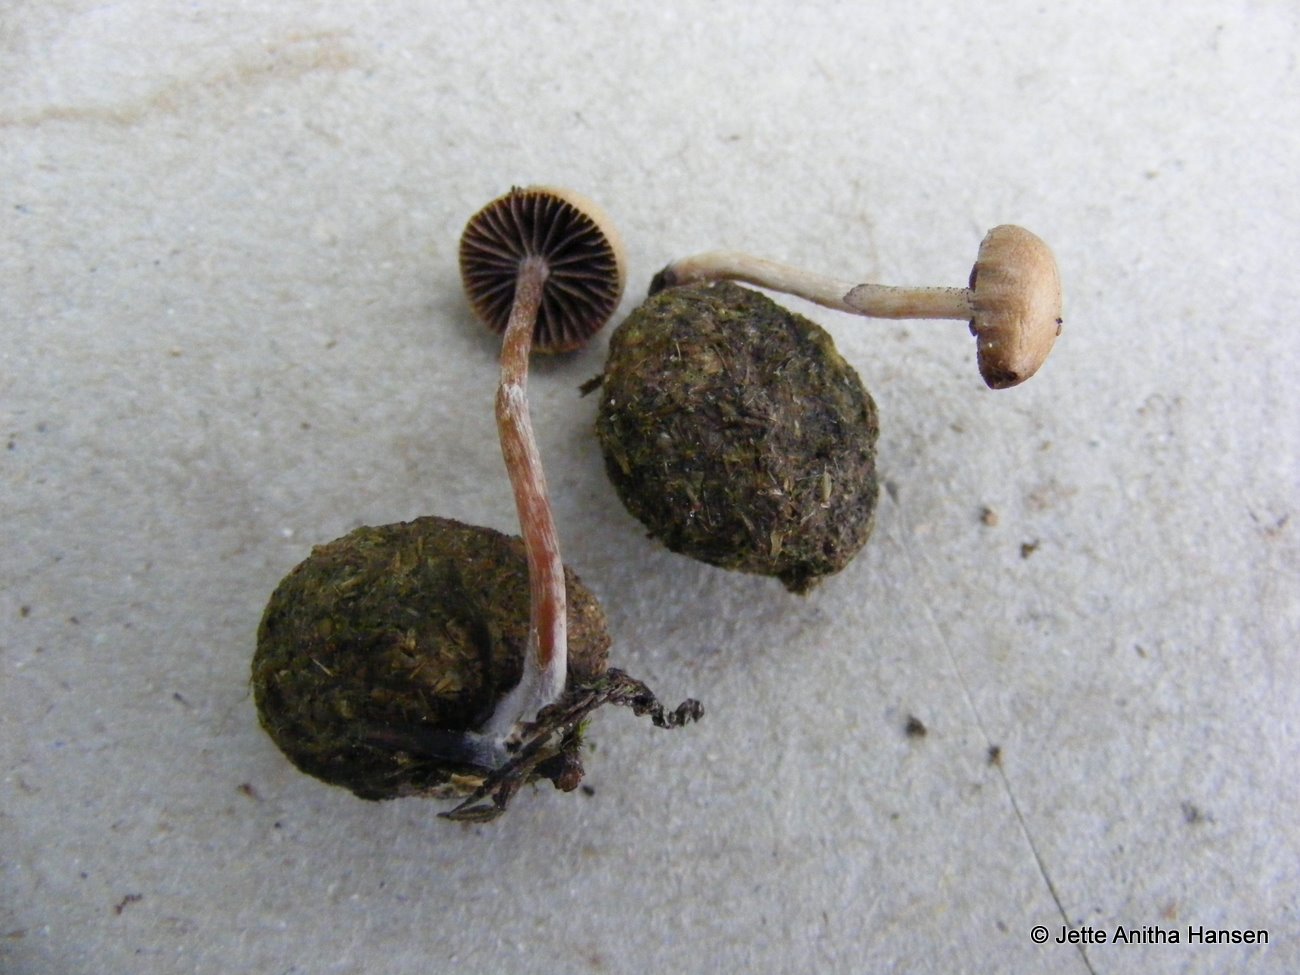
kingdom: Fungi
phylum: Basidiomycota
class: Agaricomycetes
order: Agaricales
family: Strophariaceae
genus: Deconica
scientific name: Deconica coprophila
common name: gødnings-stråhat
